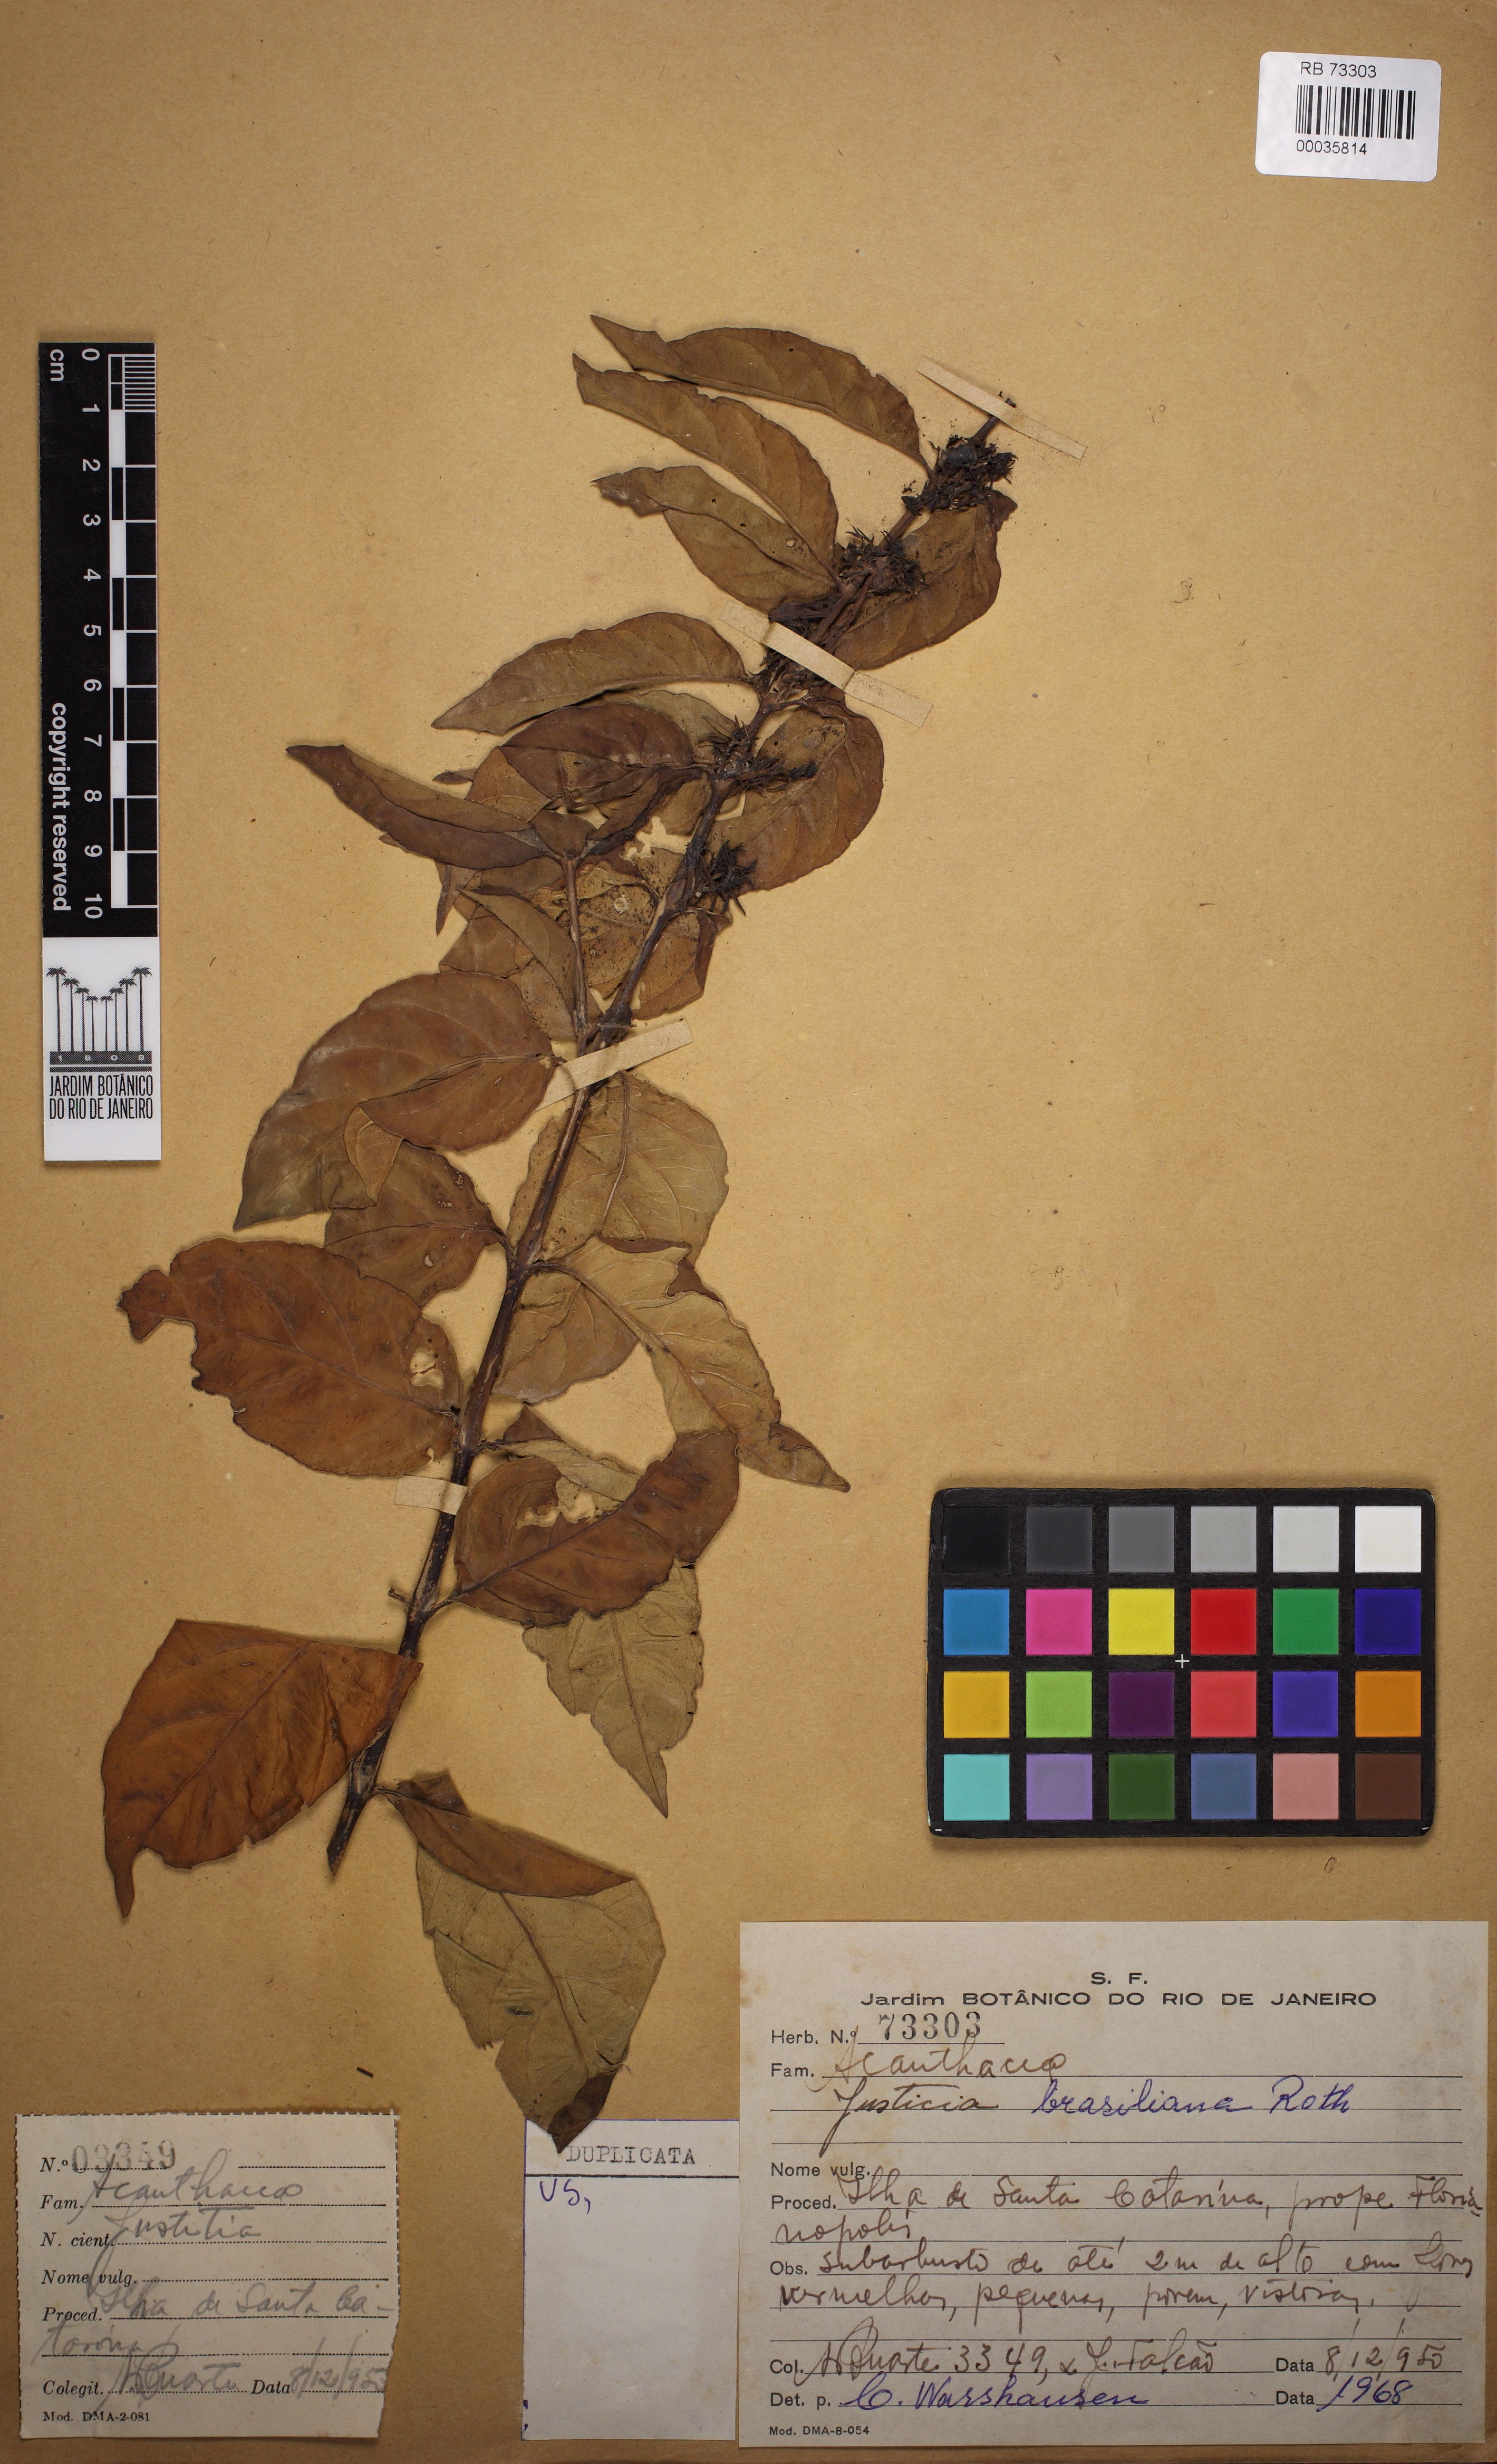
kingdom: Plantae
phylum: Tracheophyta
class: Magnoliopsida
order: Lamiales
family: Acanthaceae
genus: Justicia
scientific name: Justicia brasiliana
